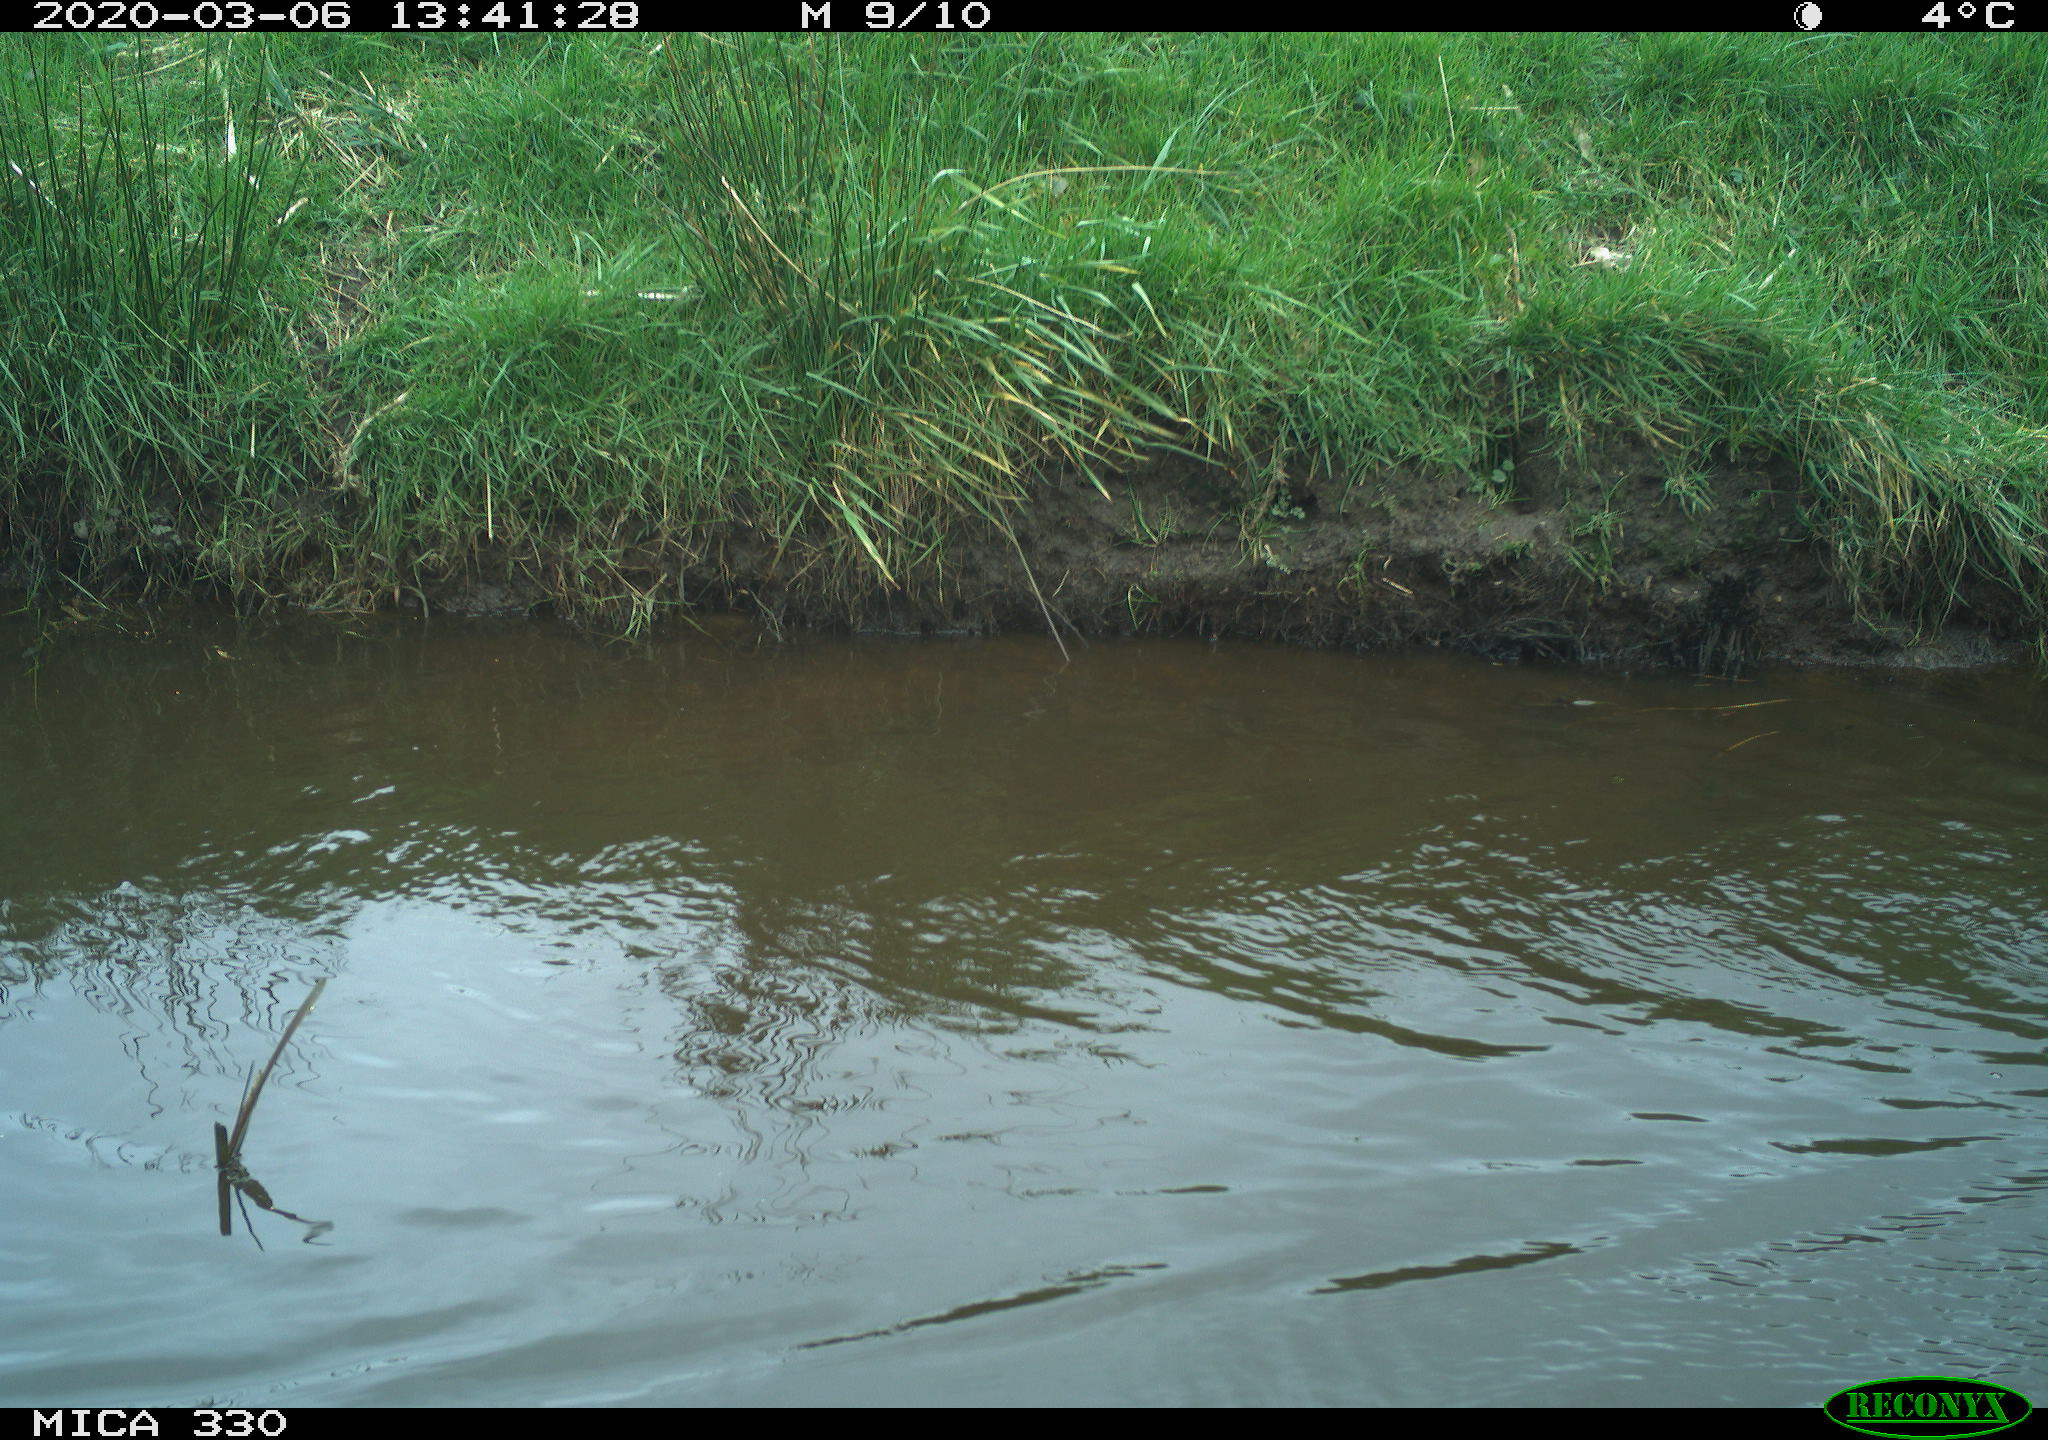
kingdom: Animalia
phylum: Chordata
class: Aves
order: Anseriformes
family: Anatidae
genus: Anas
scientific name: Anas platyrhynchos
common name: Mallard
